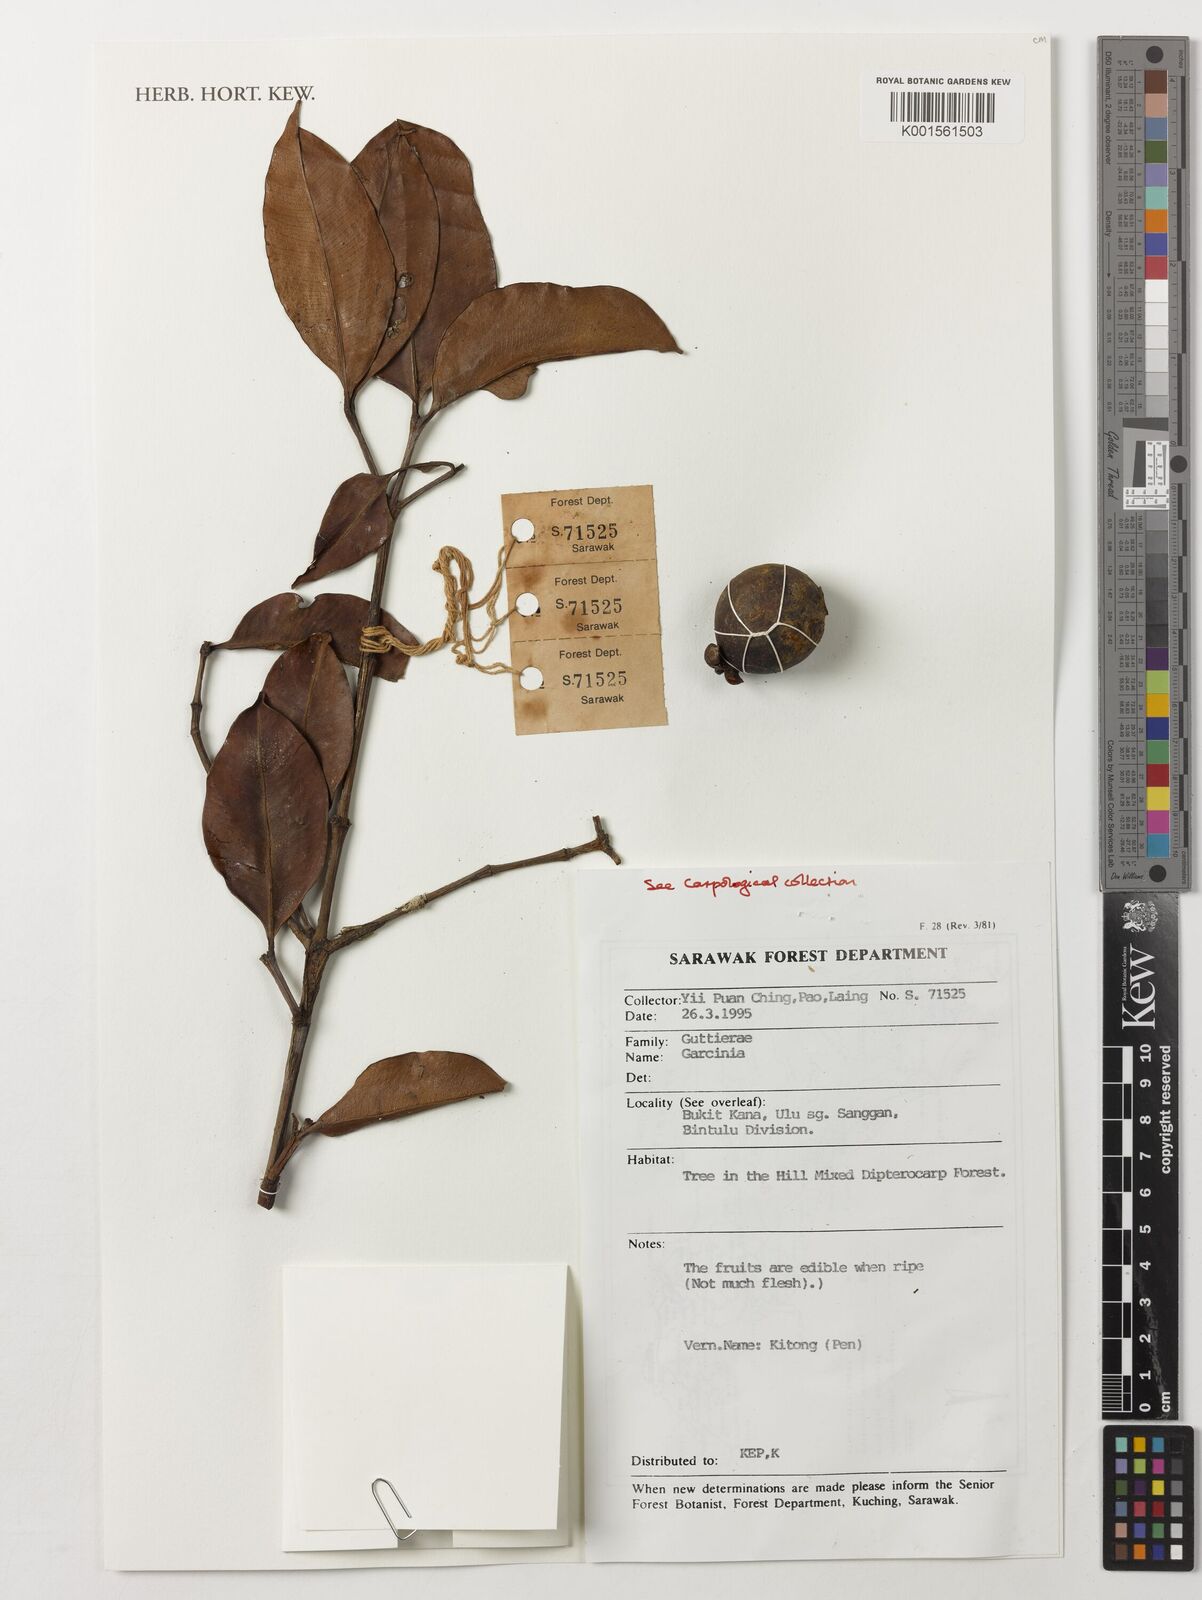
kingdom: Plantae
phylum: Tracheophyta
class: Magnoliopsida
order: Malpighiales
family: Clusiaceae
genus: Garcinia
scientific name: Garcinia
